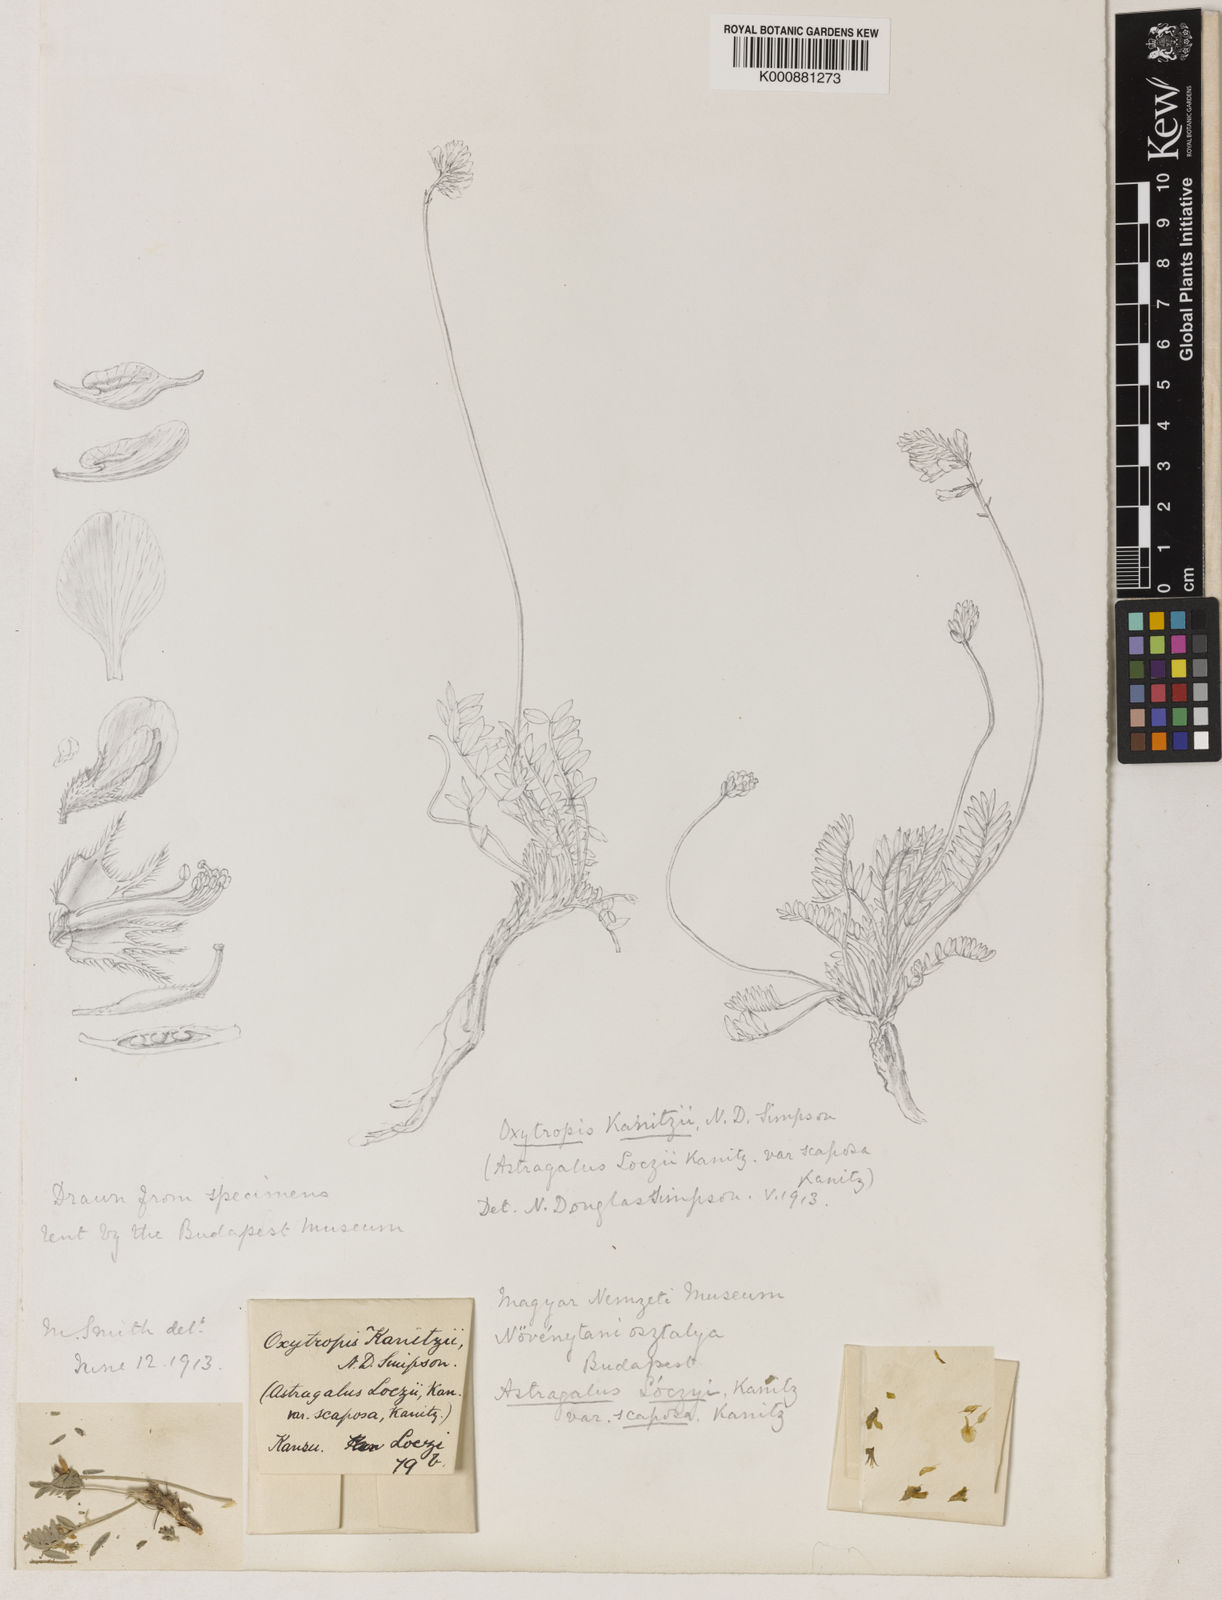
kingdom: Plantae
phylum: Tracheophyta
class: Magnoliopsida
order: Fabales
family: Fabaceae
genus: Oxytropis
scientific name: Oxytropis imbricata
